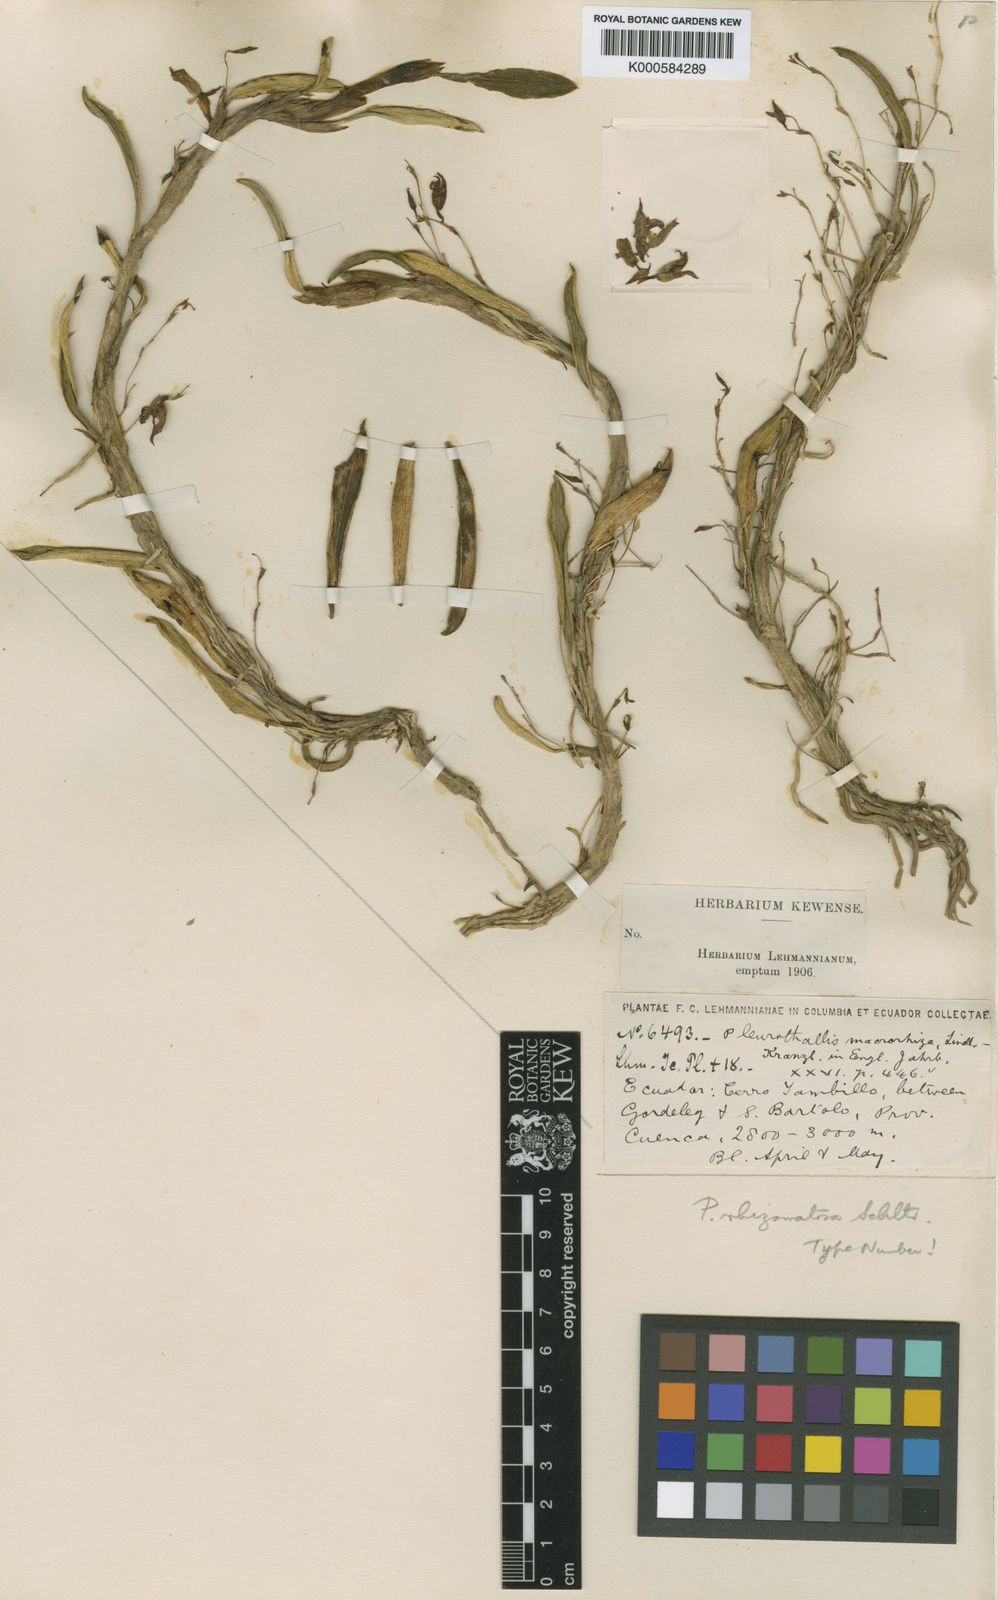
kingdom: Plantae
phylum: Tracheophyta
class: Liliopsida
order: Asparagales
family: Orchidaceae
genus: Andinia
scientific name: Andinia spiralis
